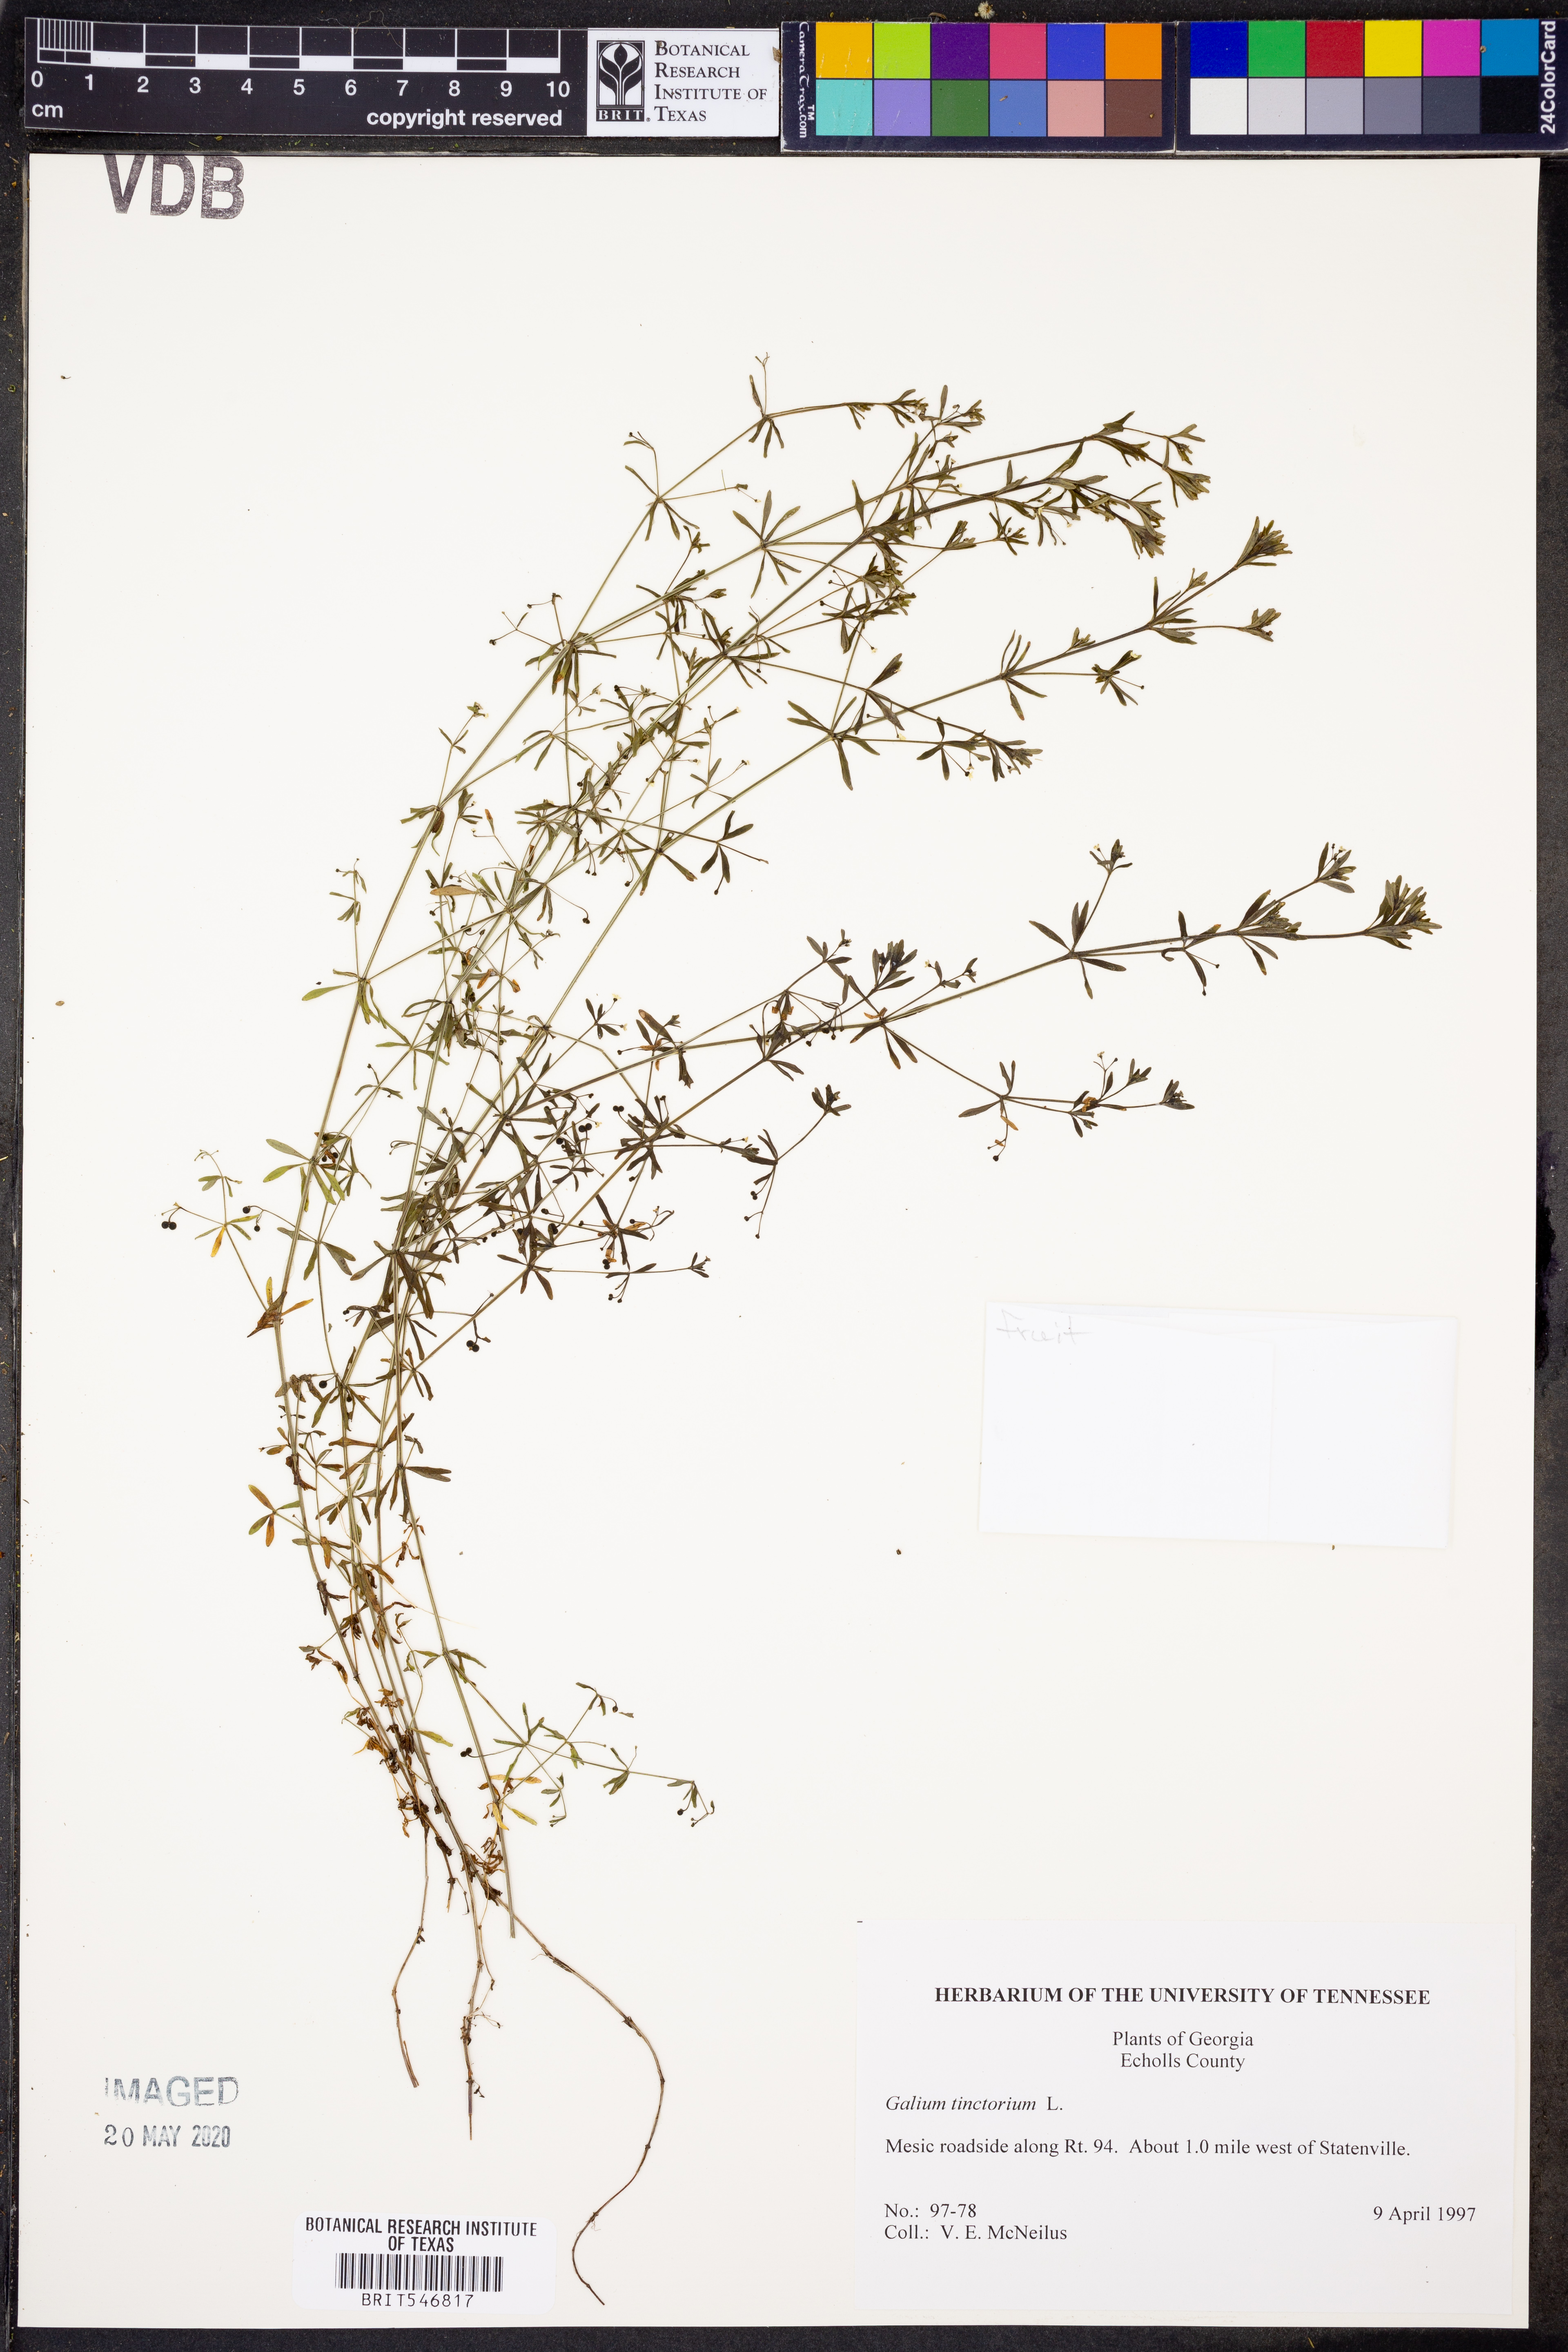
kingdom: Plantae
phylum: Tracheophyta
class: Magnoliopsida
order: Gentianales
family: Rubiaceae
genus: Asperula
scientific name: Asperula tinctoria
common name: Dyer's woodruff
